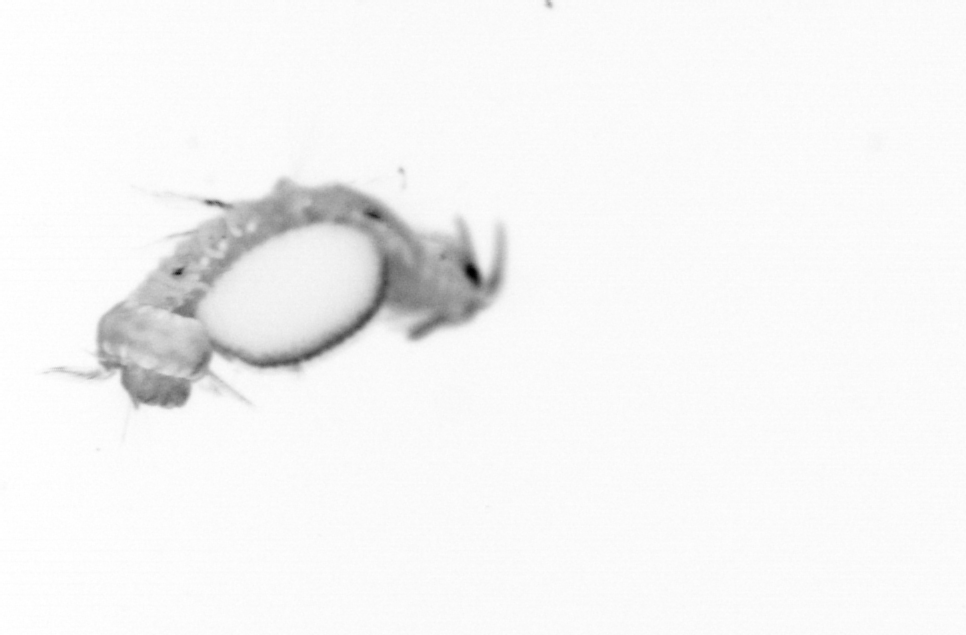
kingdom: Animalia
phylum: Annelida
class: Polychaeta
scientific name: Polychaeta
